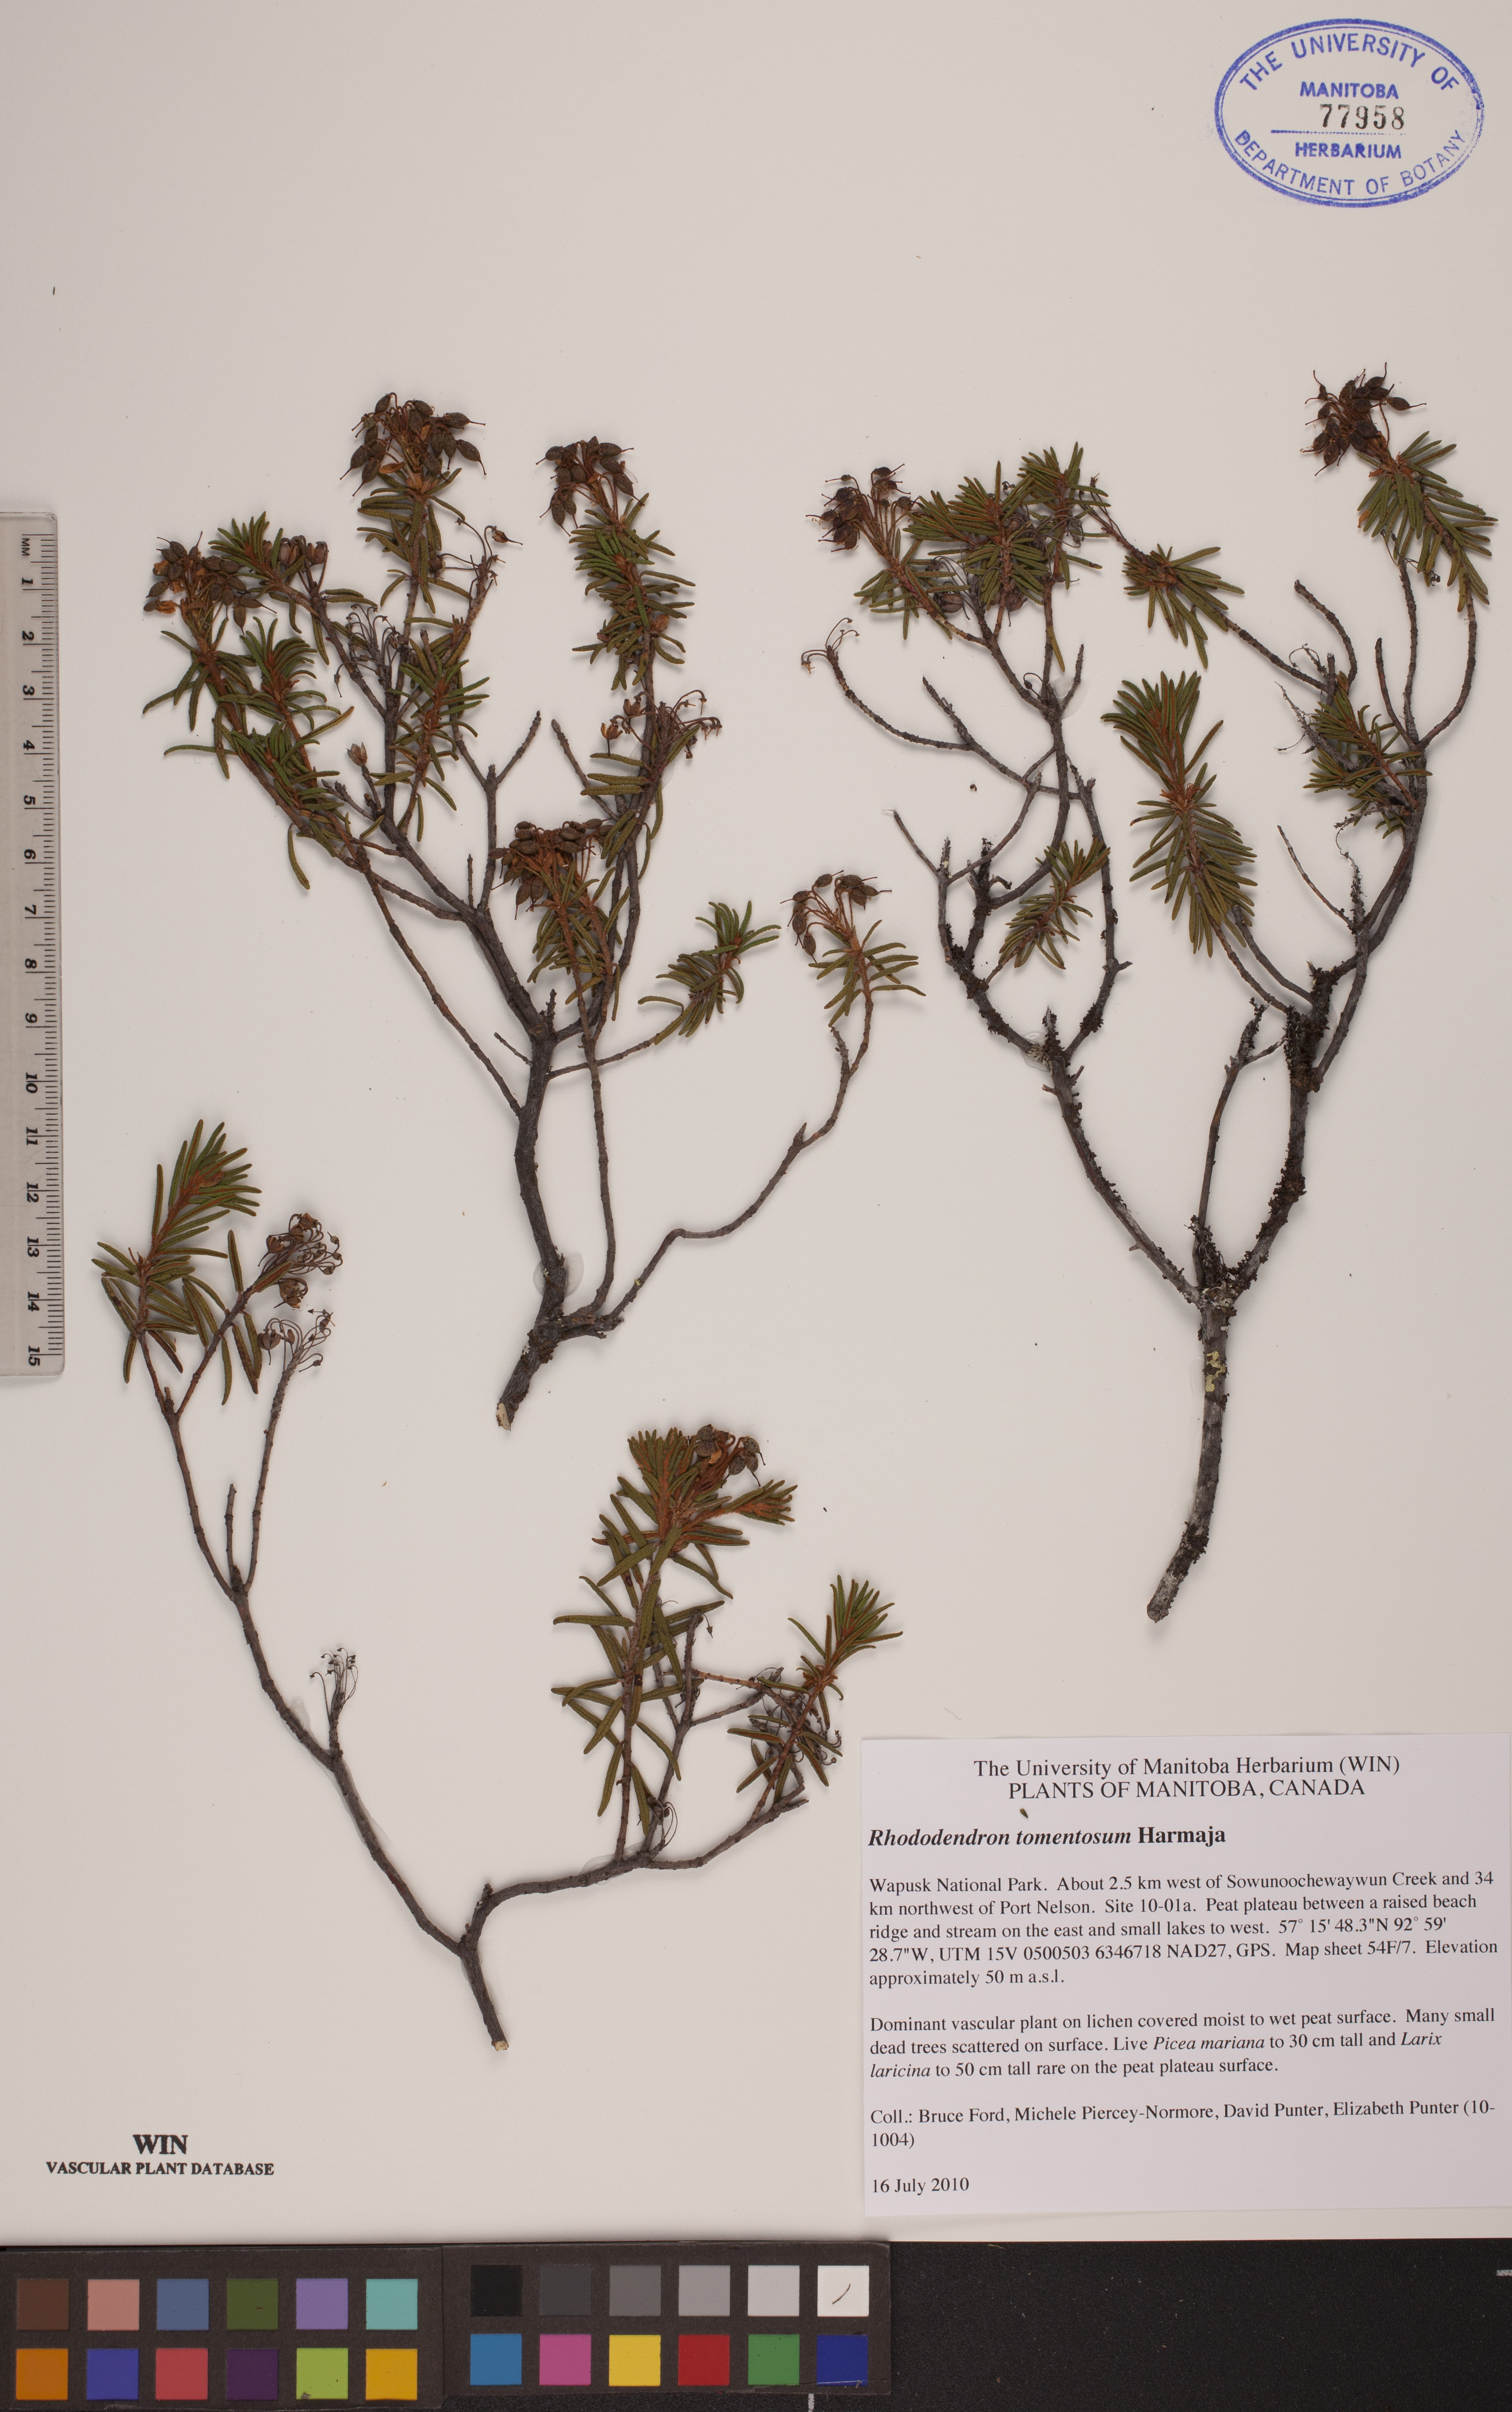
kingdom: Plantae
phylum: Tracheophyta
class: Magnoliopsida
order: Ericales
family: Ericaceae
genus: Rhododendron
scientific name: Rhododendron tomentosum
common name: Marsh labrador tea
